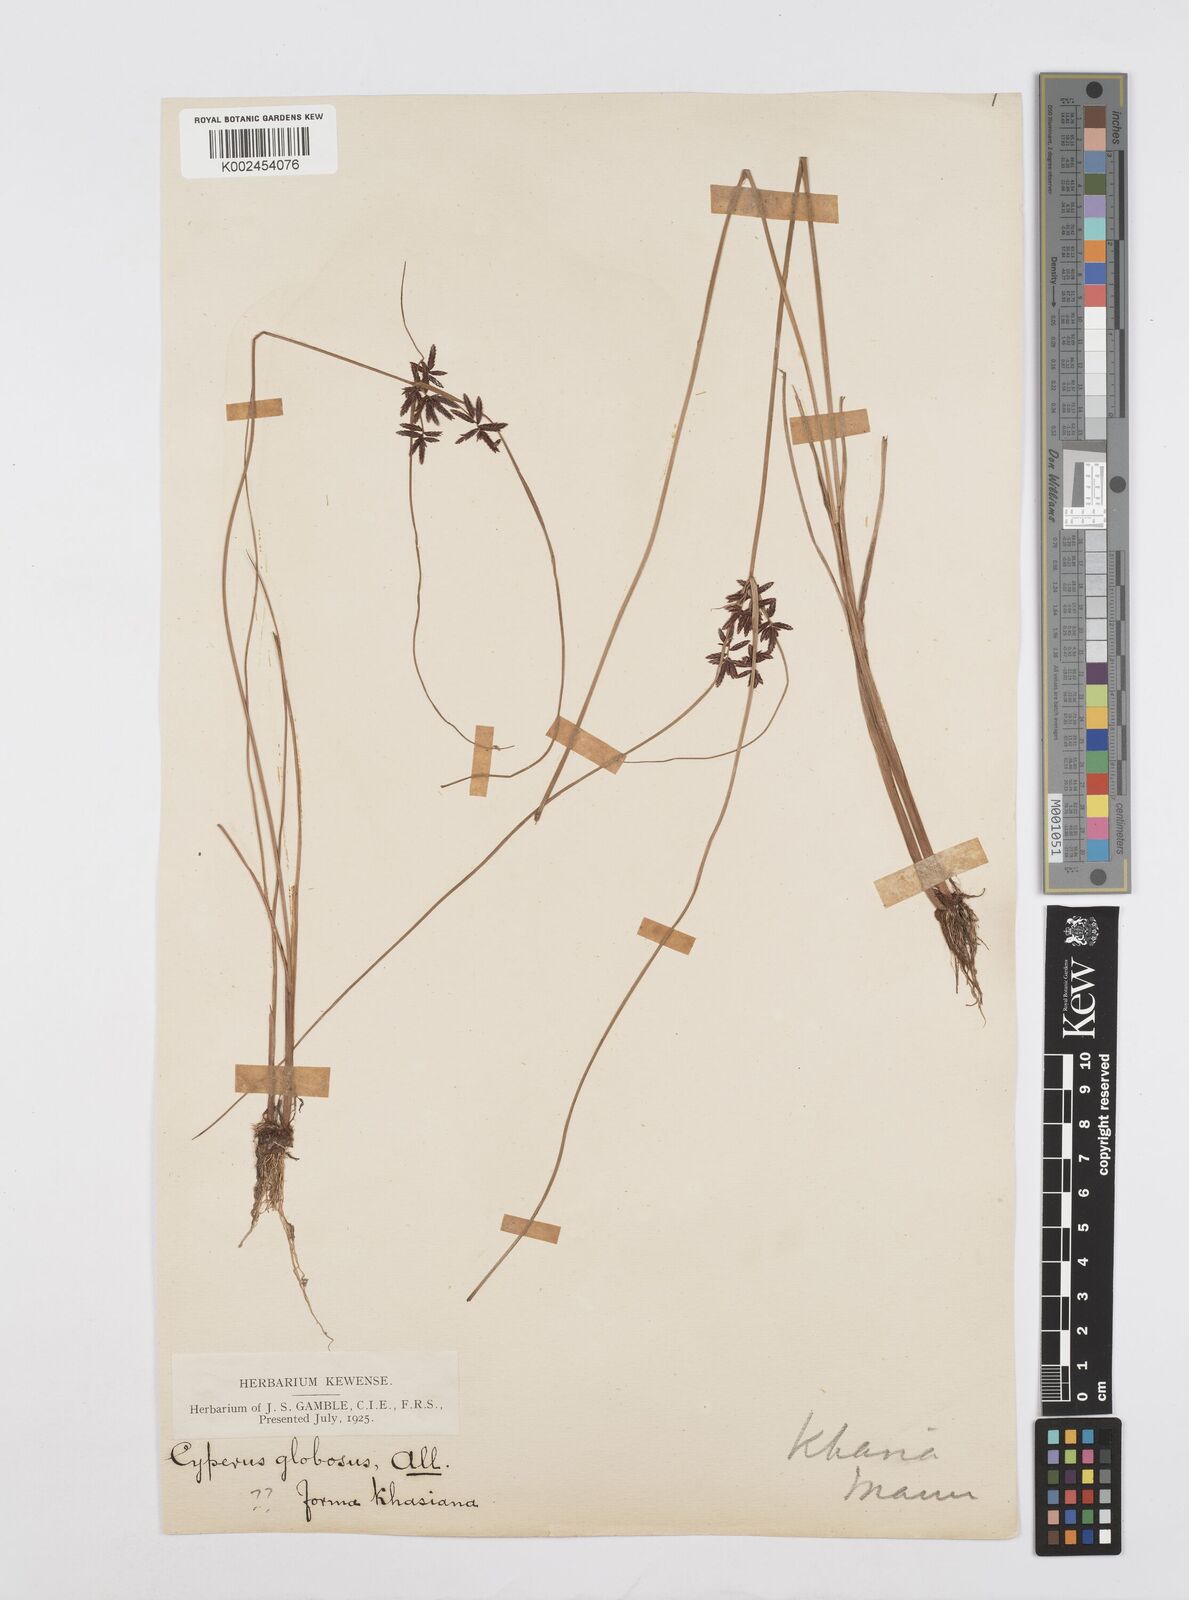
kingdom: Plantae
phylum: Tracheophyta
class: Liliopsida
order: Poales
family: Cyperaceae
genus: Cyperus
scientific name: Cyperus flavidus
